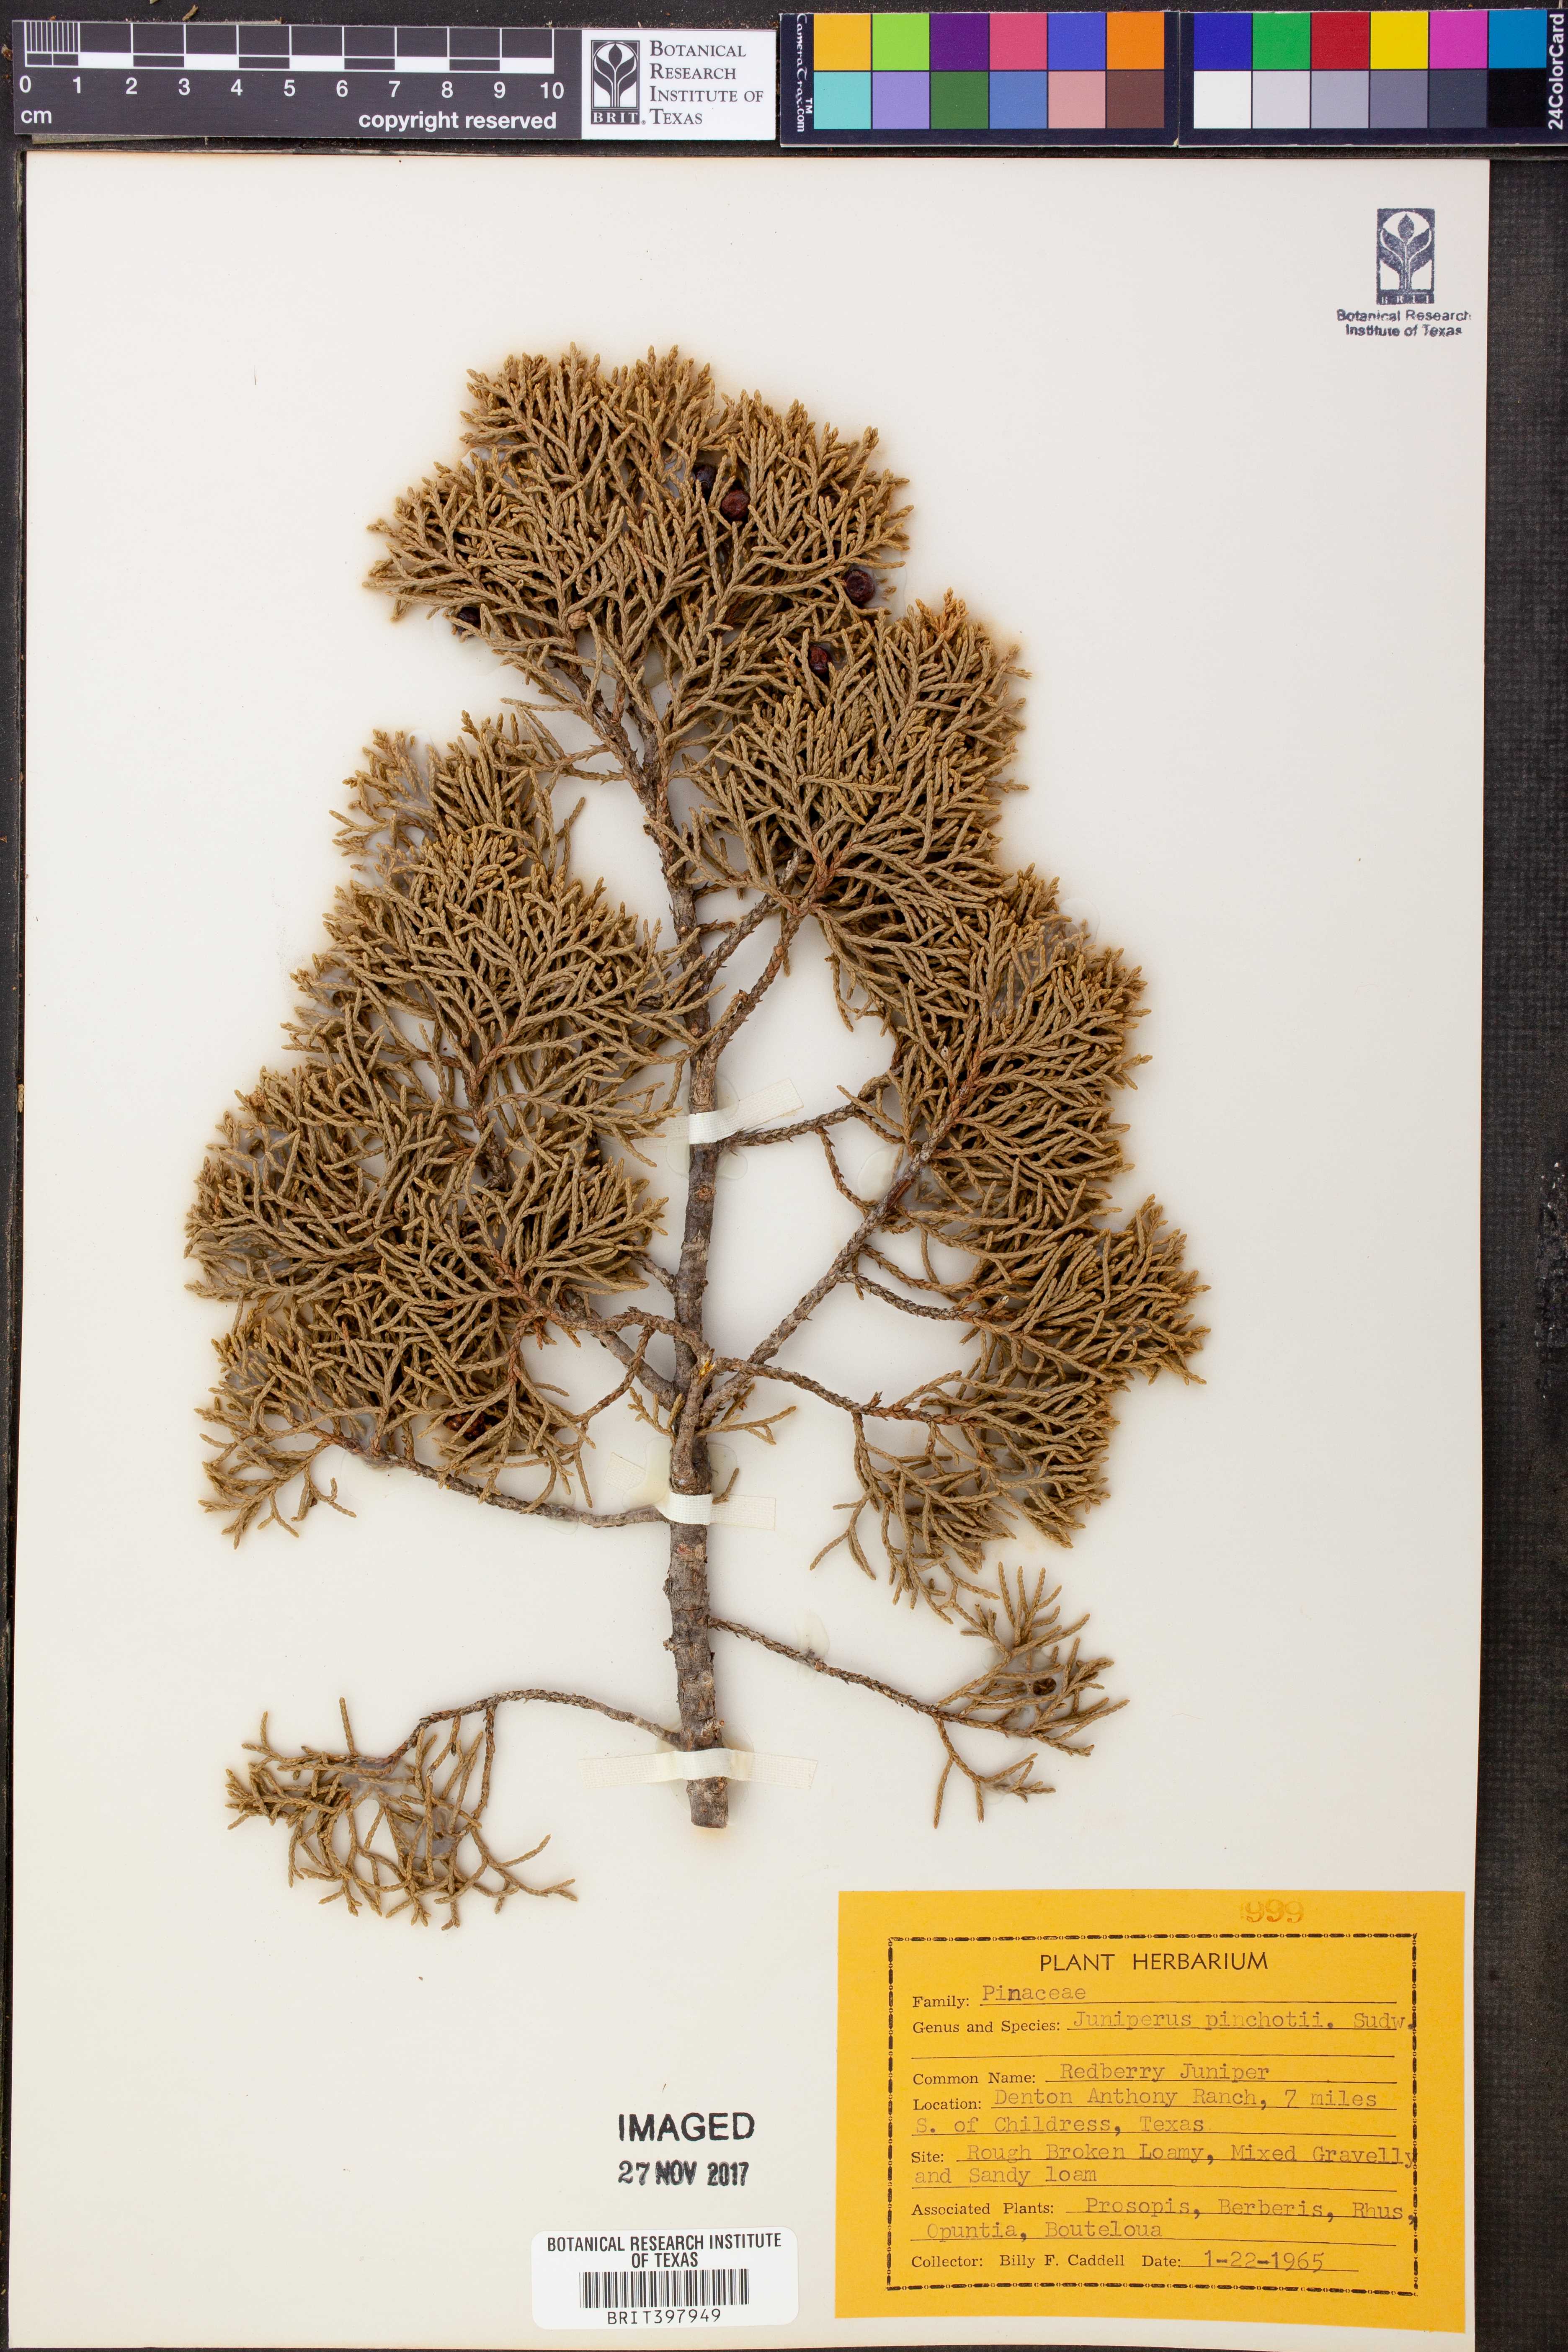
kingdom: Plantae
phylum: Tracheophyta
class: Pinopsida
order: Pinales
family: Cupressaceae
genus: Juniperus
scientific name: Juniperus pinchotii
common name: Pinchot juniper
